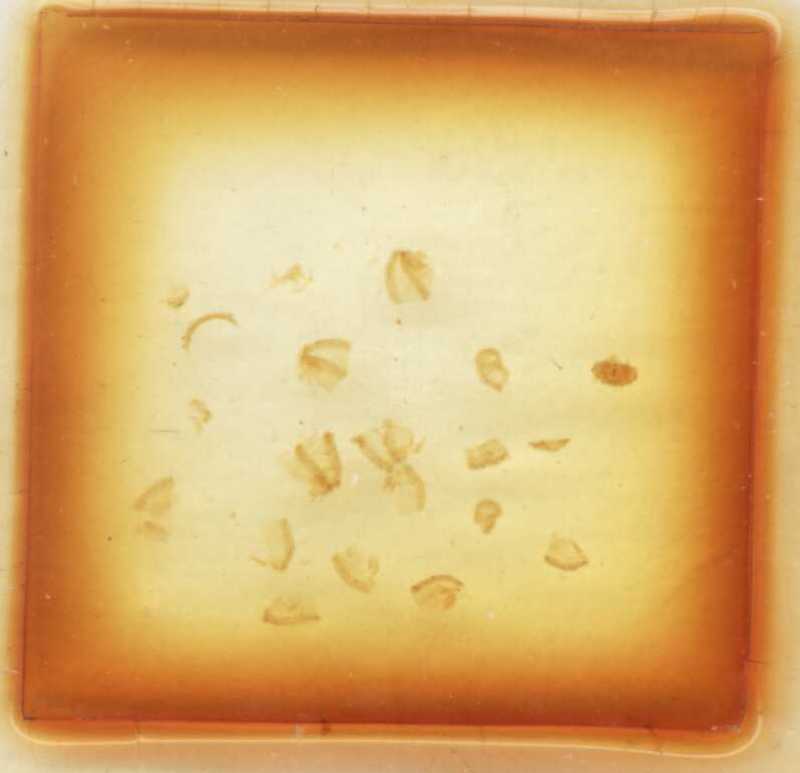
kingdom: Animalia
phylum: Arthropoda
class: Diplopoda
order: Glomerida
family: Glomeridae
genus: Trachysphaera
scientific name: Trachysphaera ormeana
